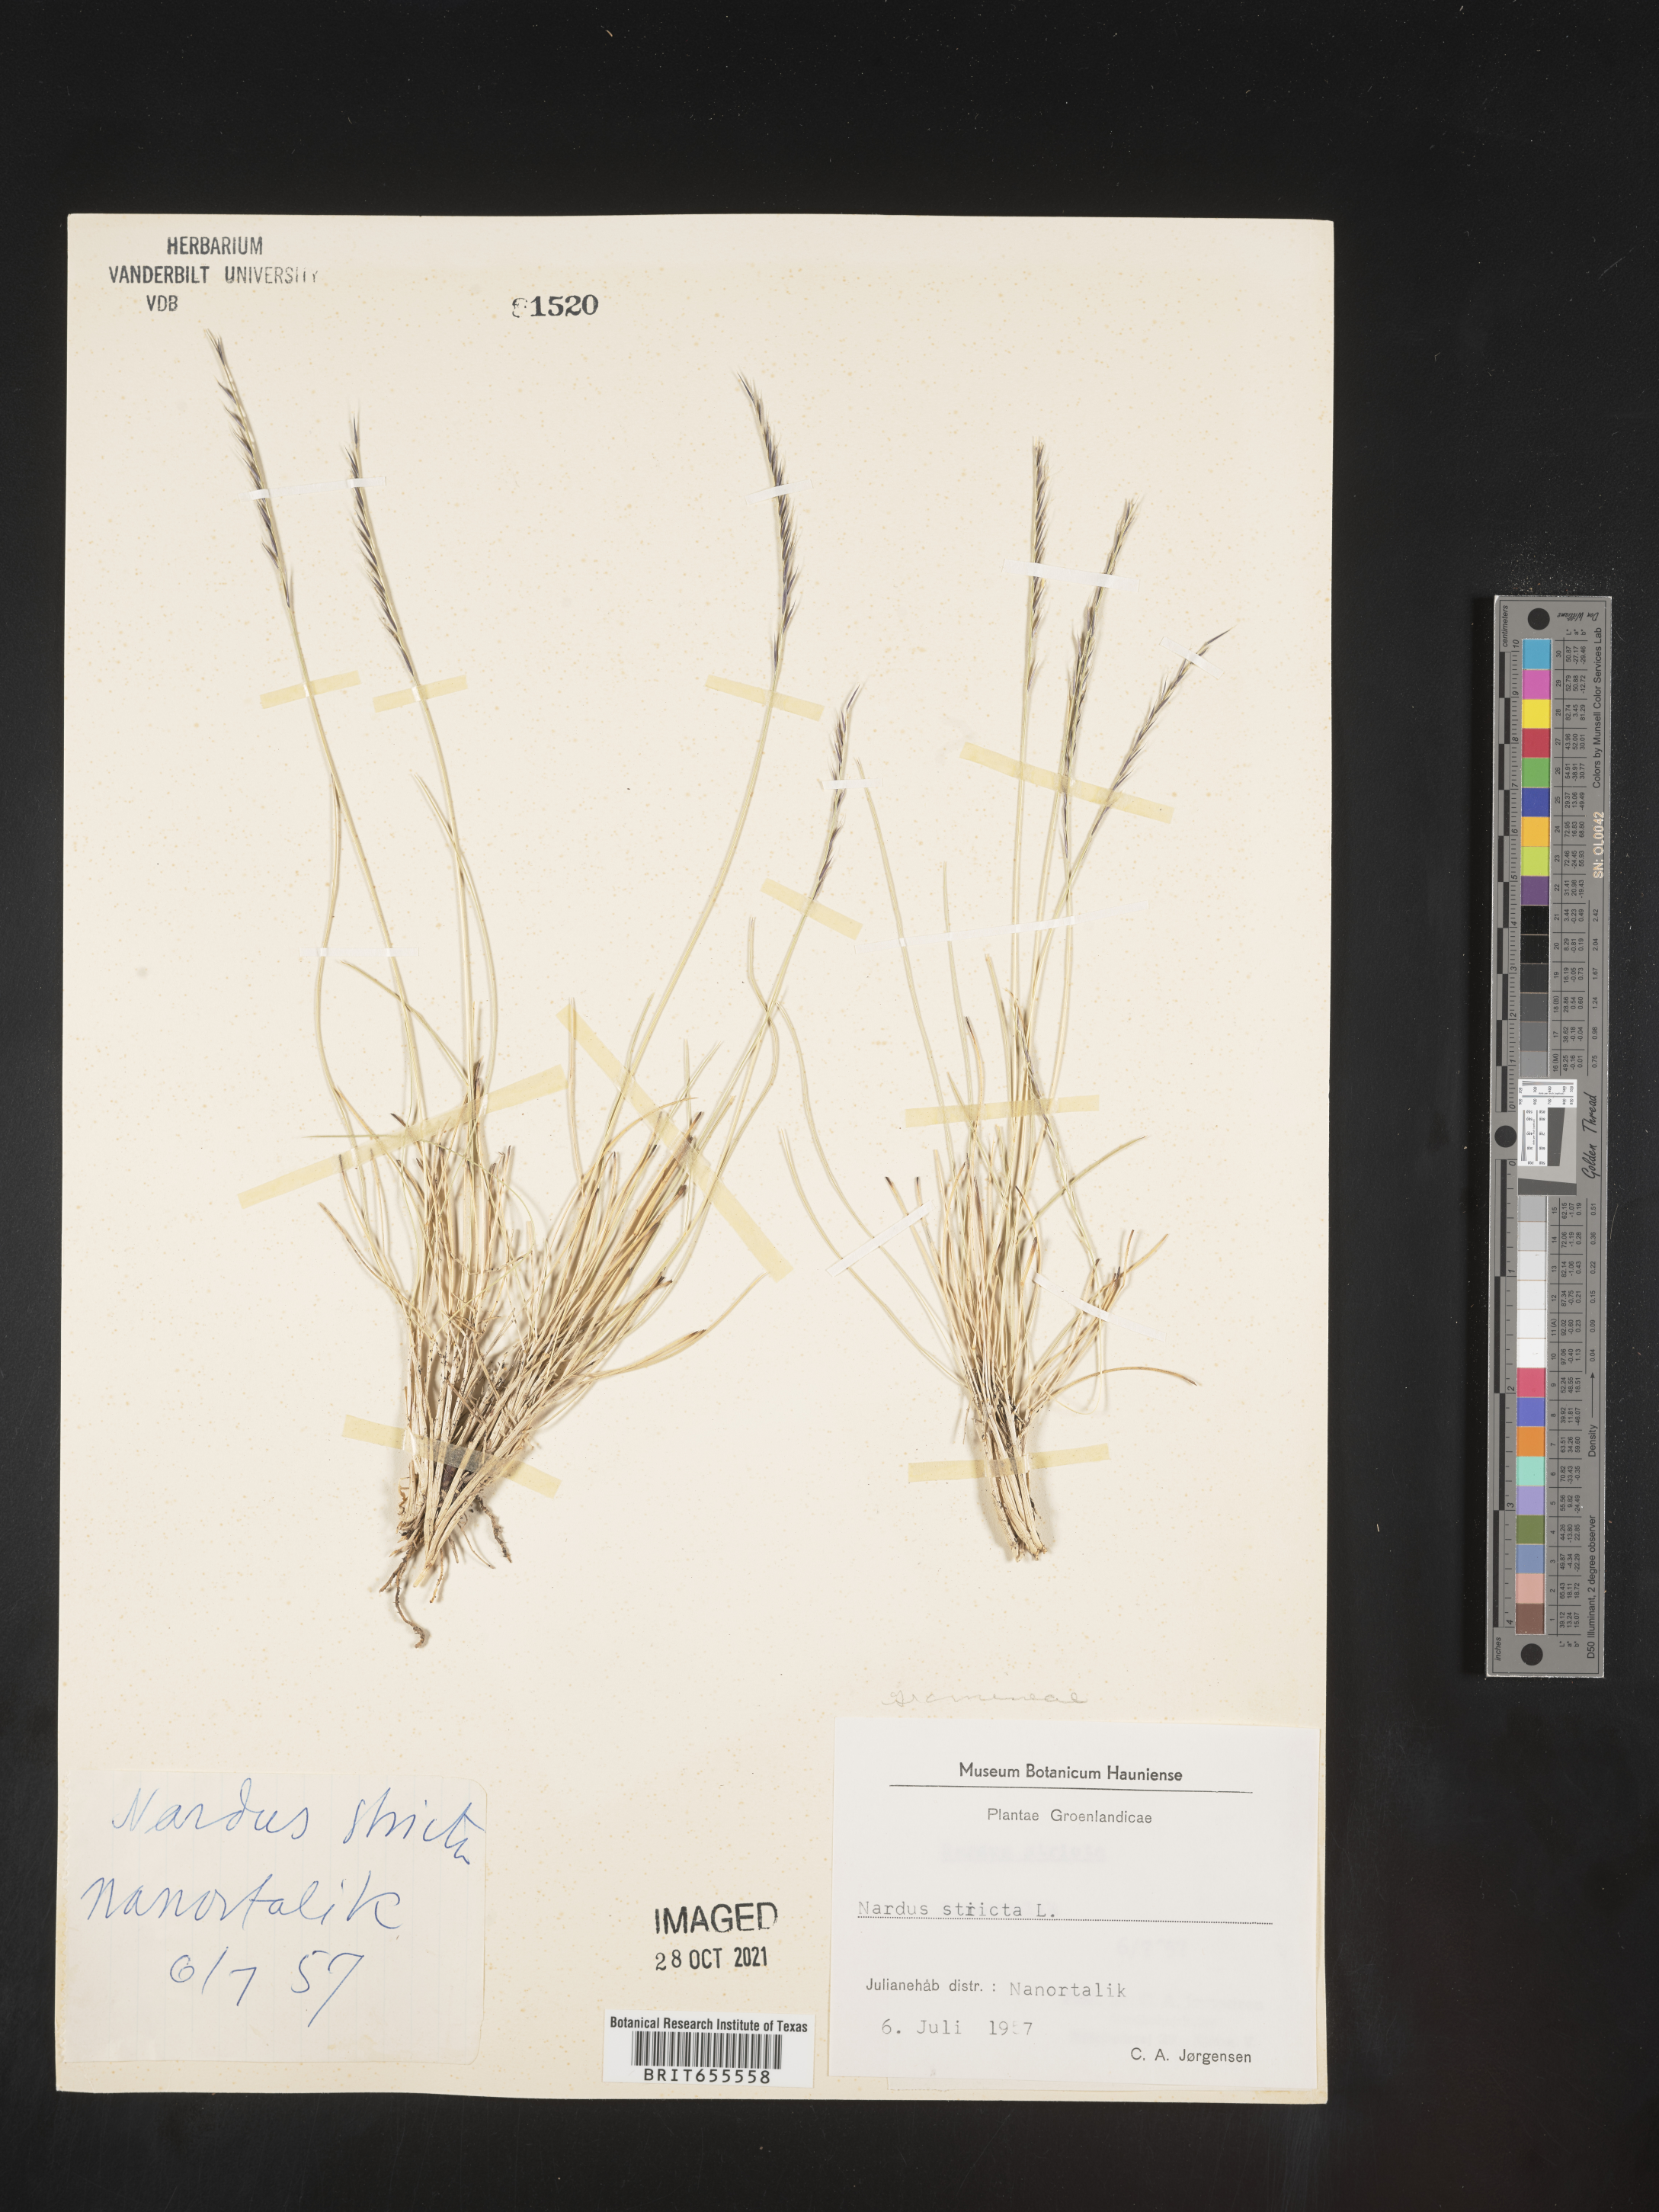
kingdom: Plantae
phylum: Tracheophyta
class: Liliopsida
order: Poales
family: Poaceae
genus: Nardus
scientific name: Nardus
